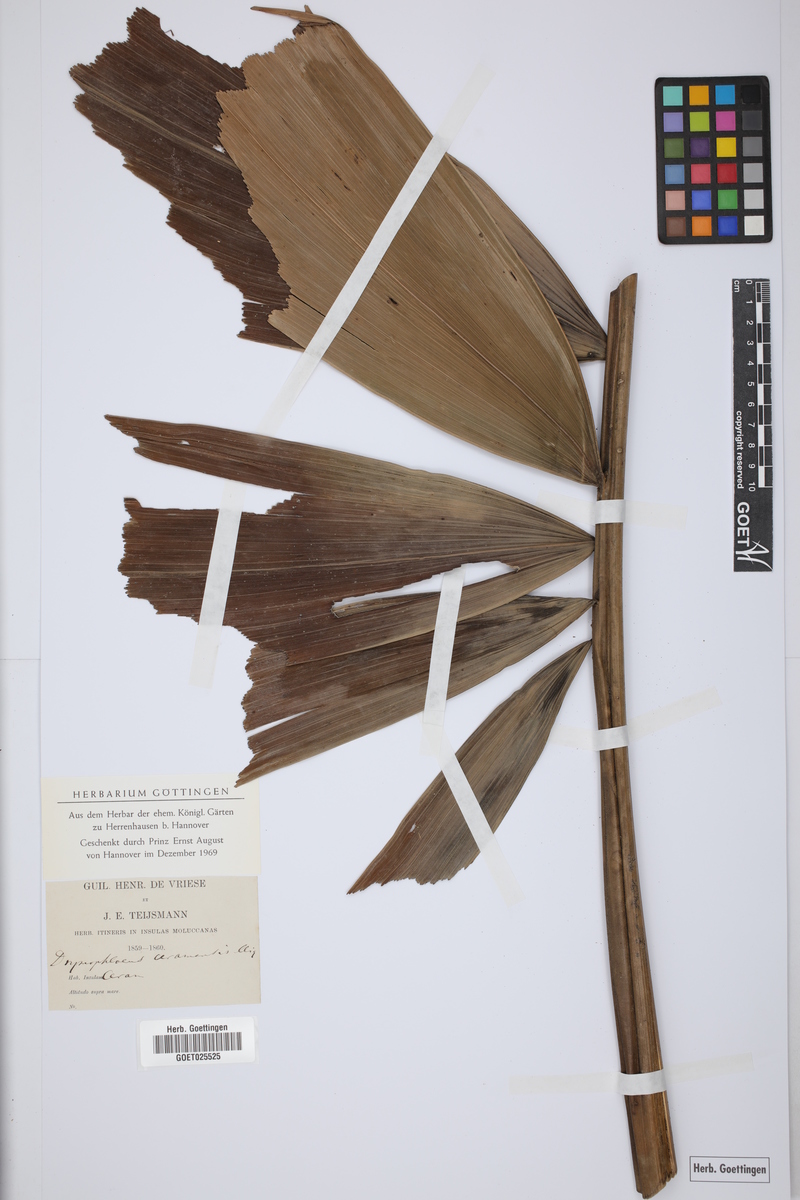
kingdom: Plantae
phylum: Tracheophyta
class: Liliopsida
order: Arecales
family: Arecaceae
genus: Drymophloeus
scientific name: Drymophloeus oliviformis
